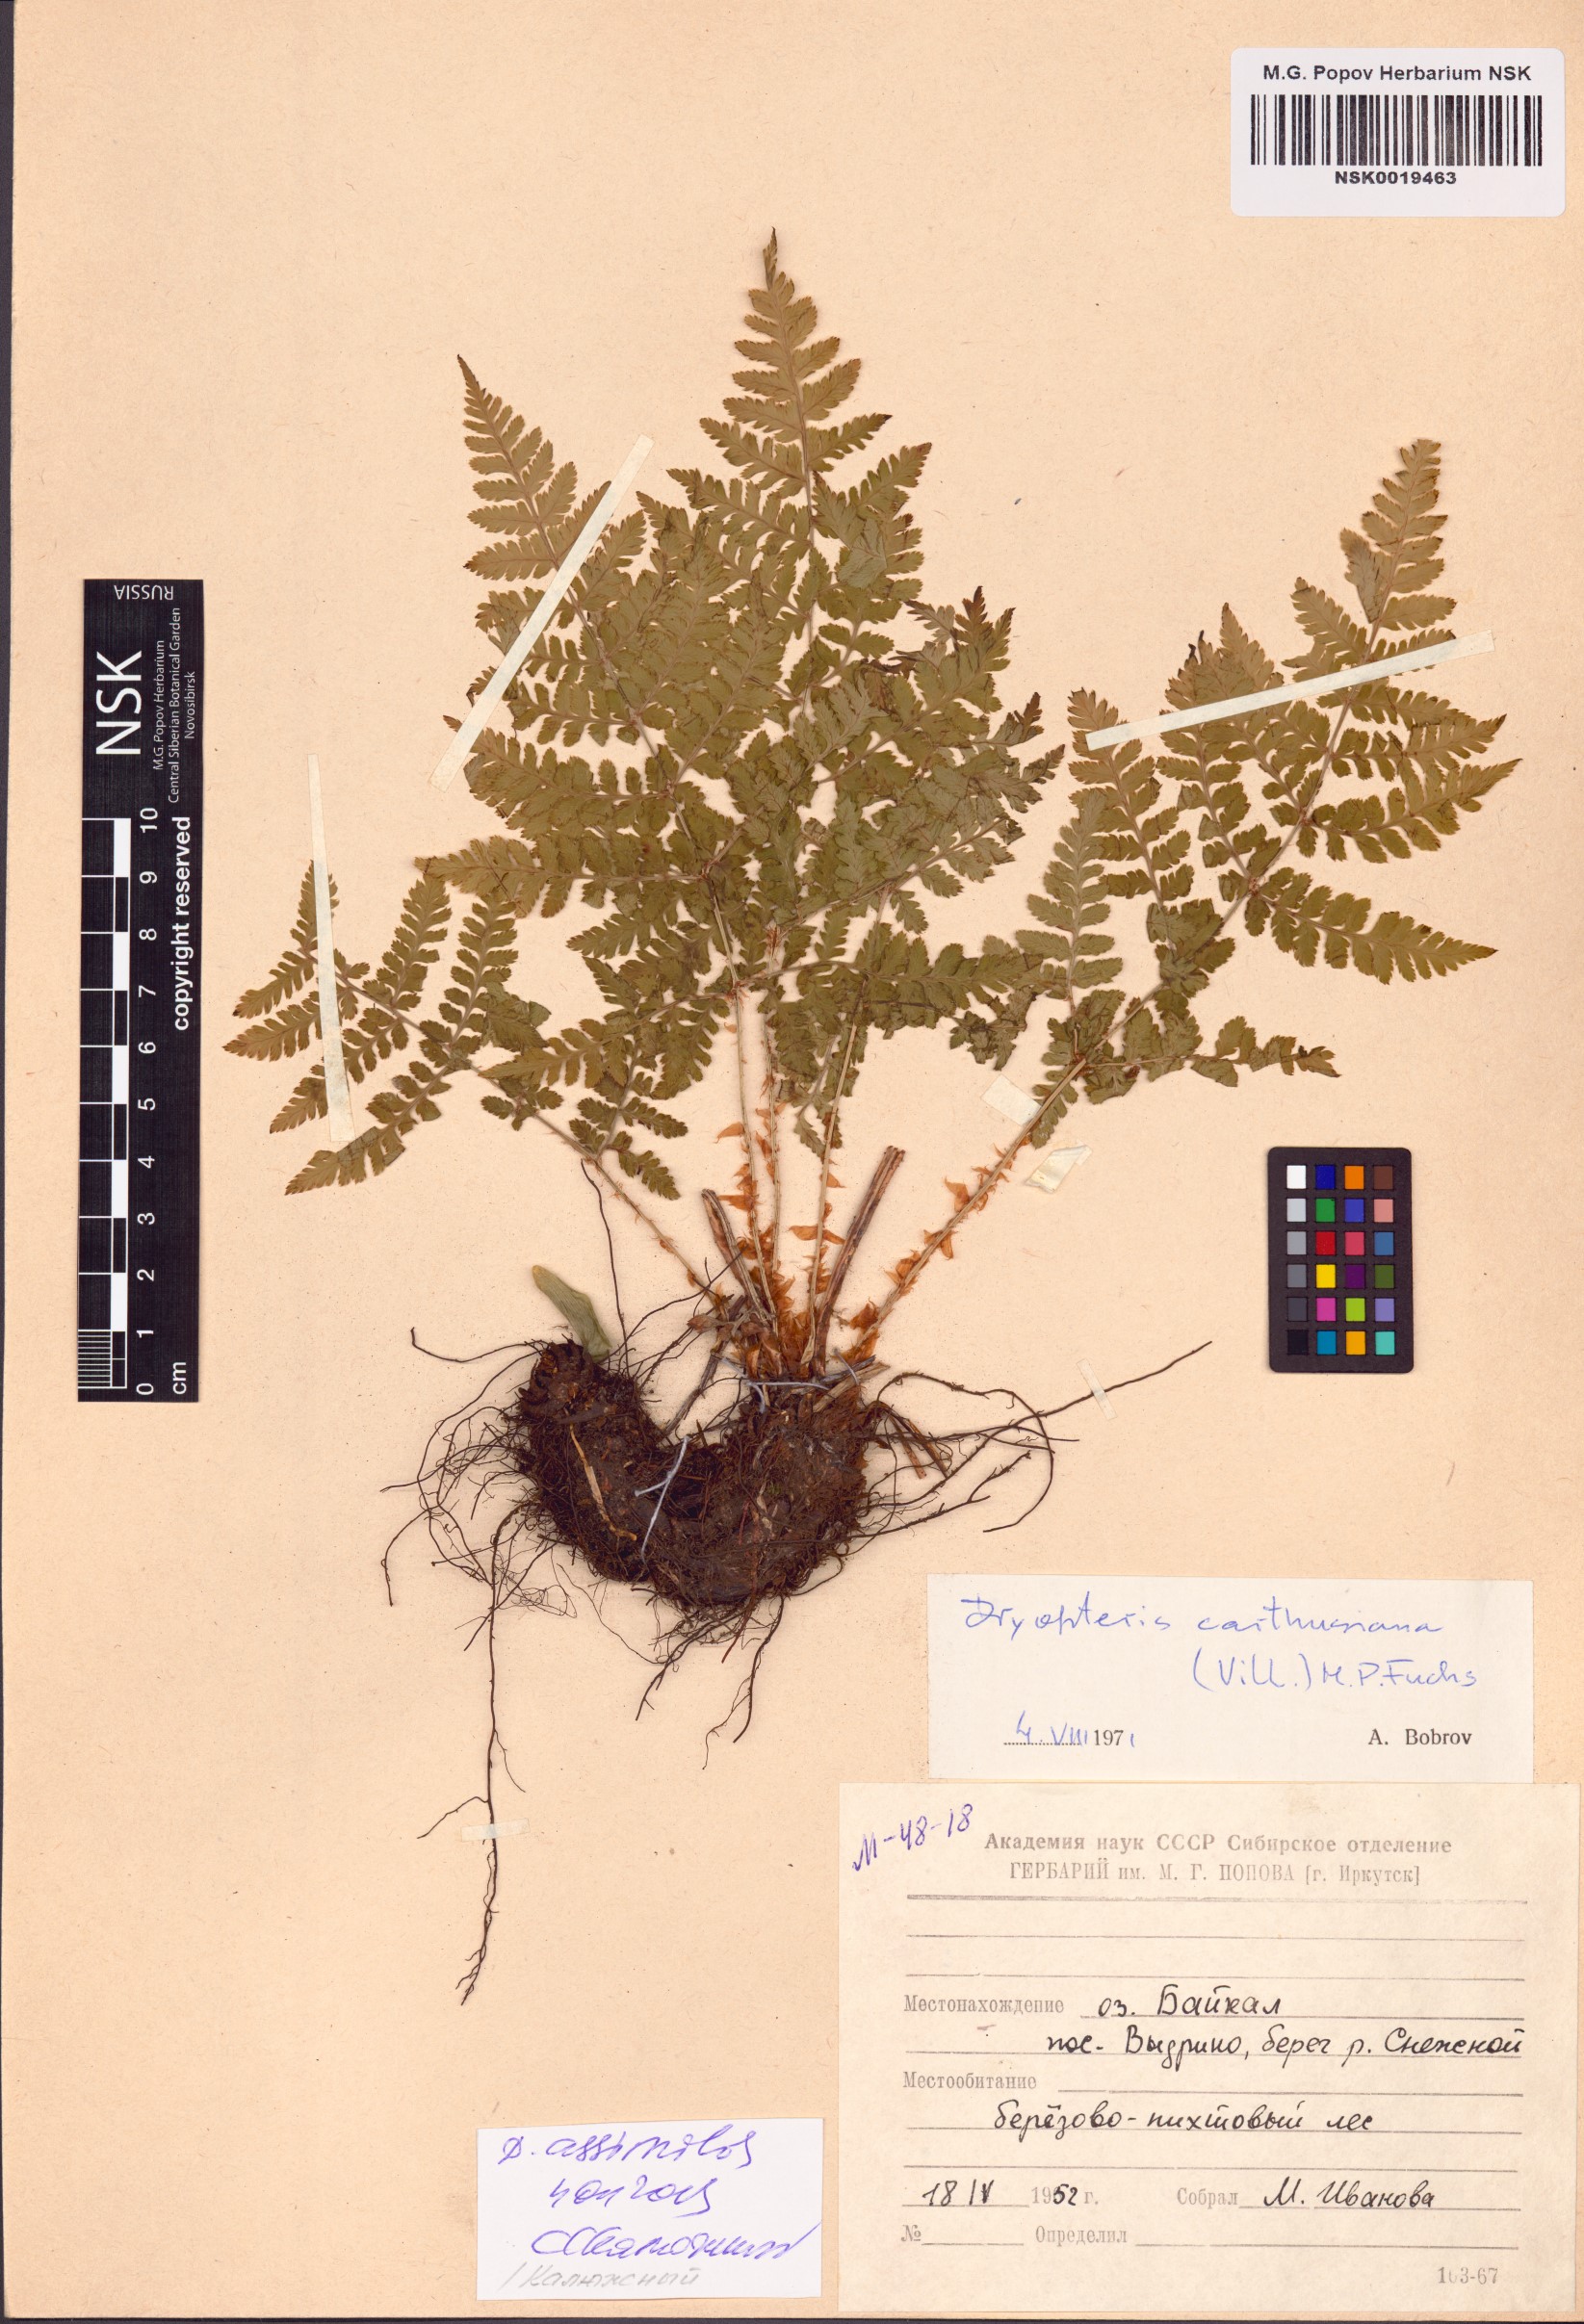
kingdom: Plantae
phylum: Tracheophyta
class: Polypodiopsida
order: Polypodiales
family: Dryopteridaceae
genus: Dryopteris
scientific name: Dryopteris expansa
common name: Northern buckler fern
